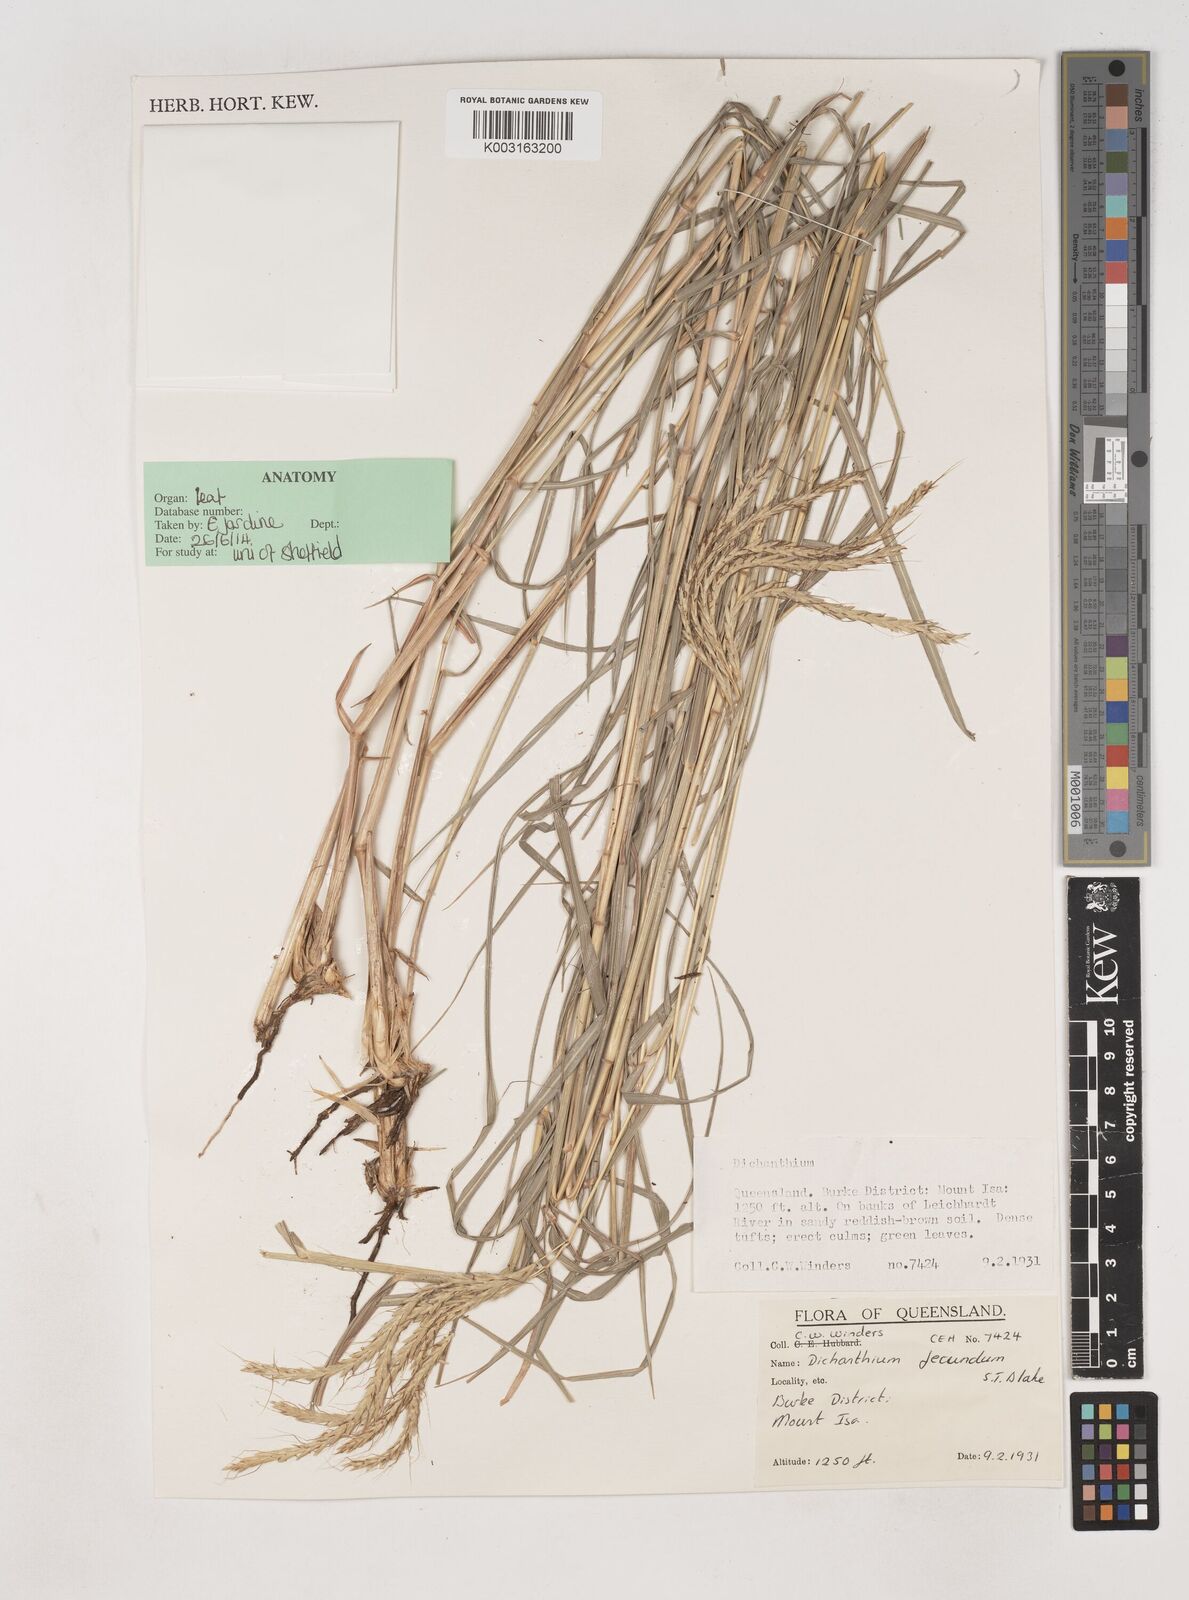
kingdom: Plantae
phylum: Tracheophyta
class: Liliopsida
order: Poales
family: Poaceae
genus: Dichanthium
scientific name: Dichanthium fecundum
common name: Bundle-bundle
